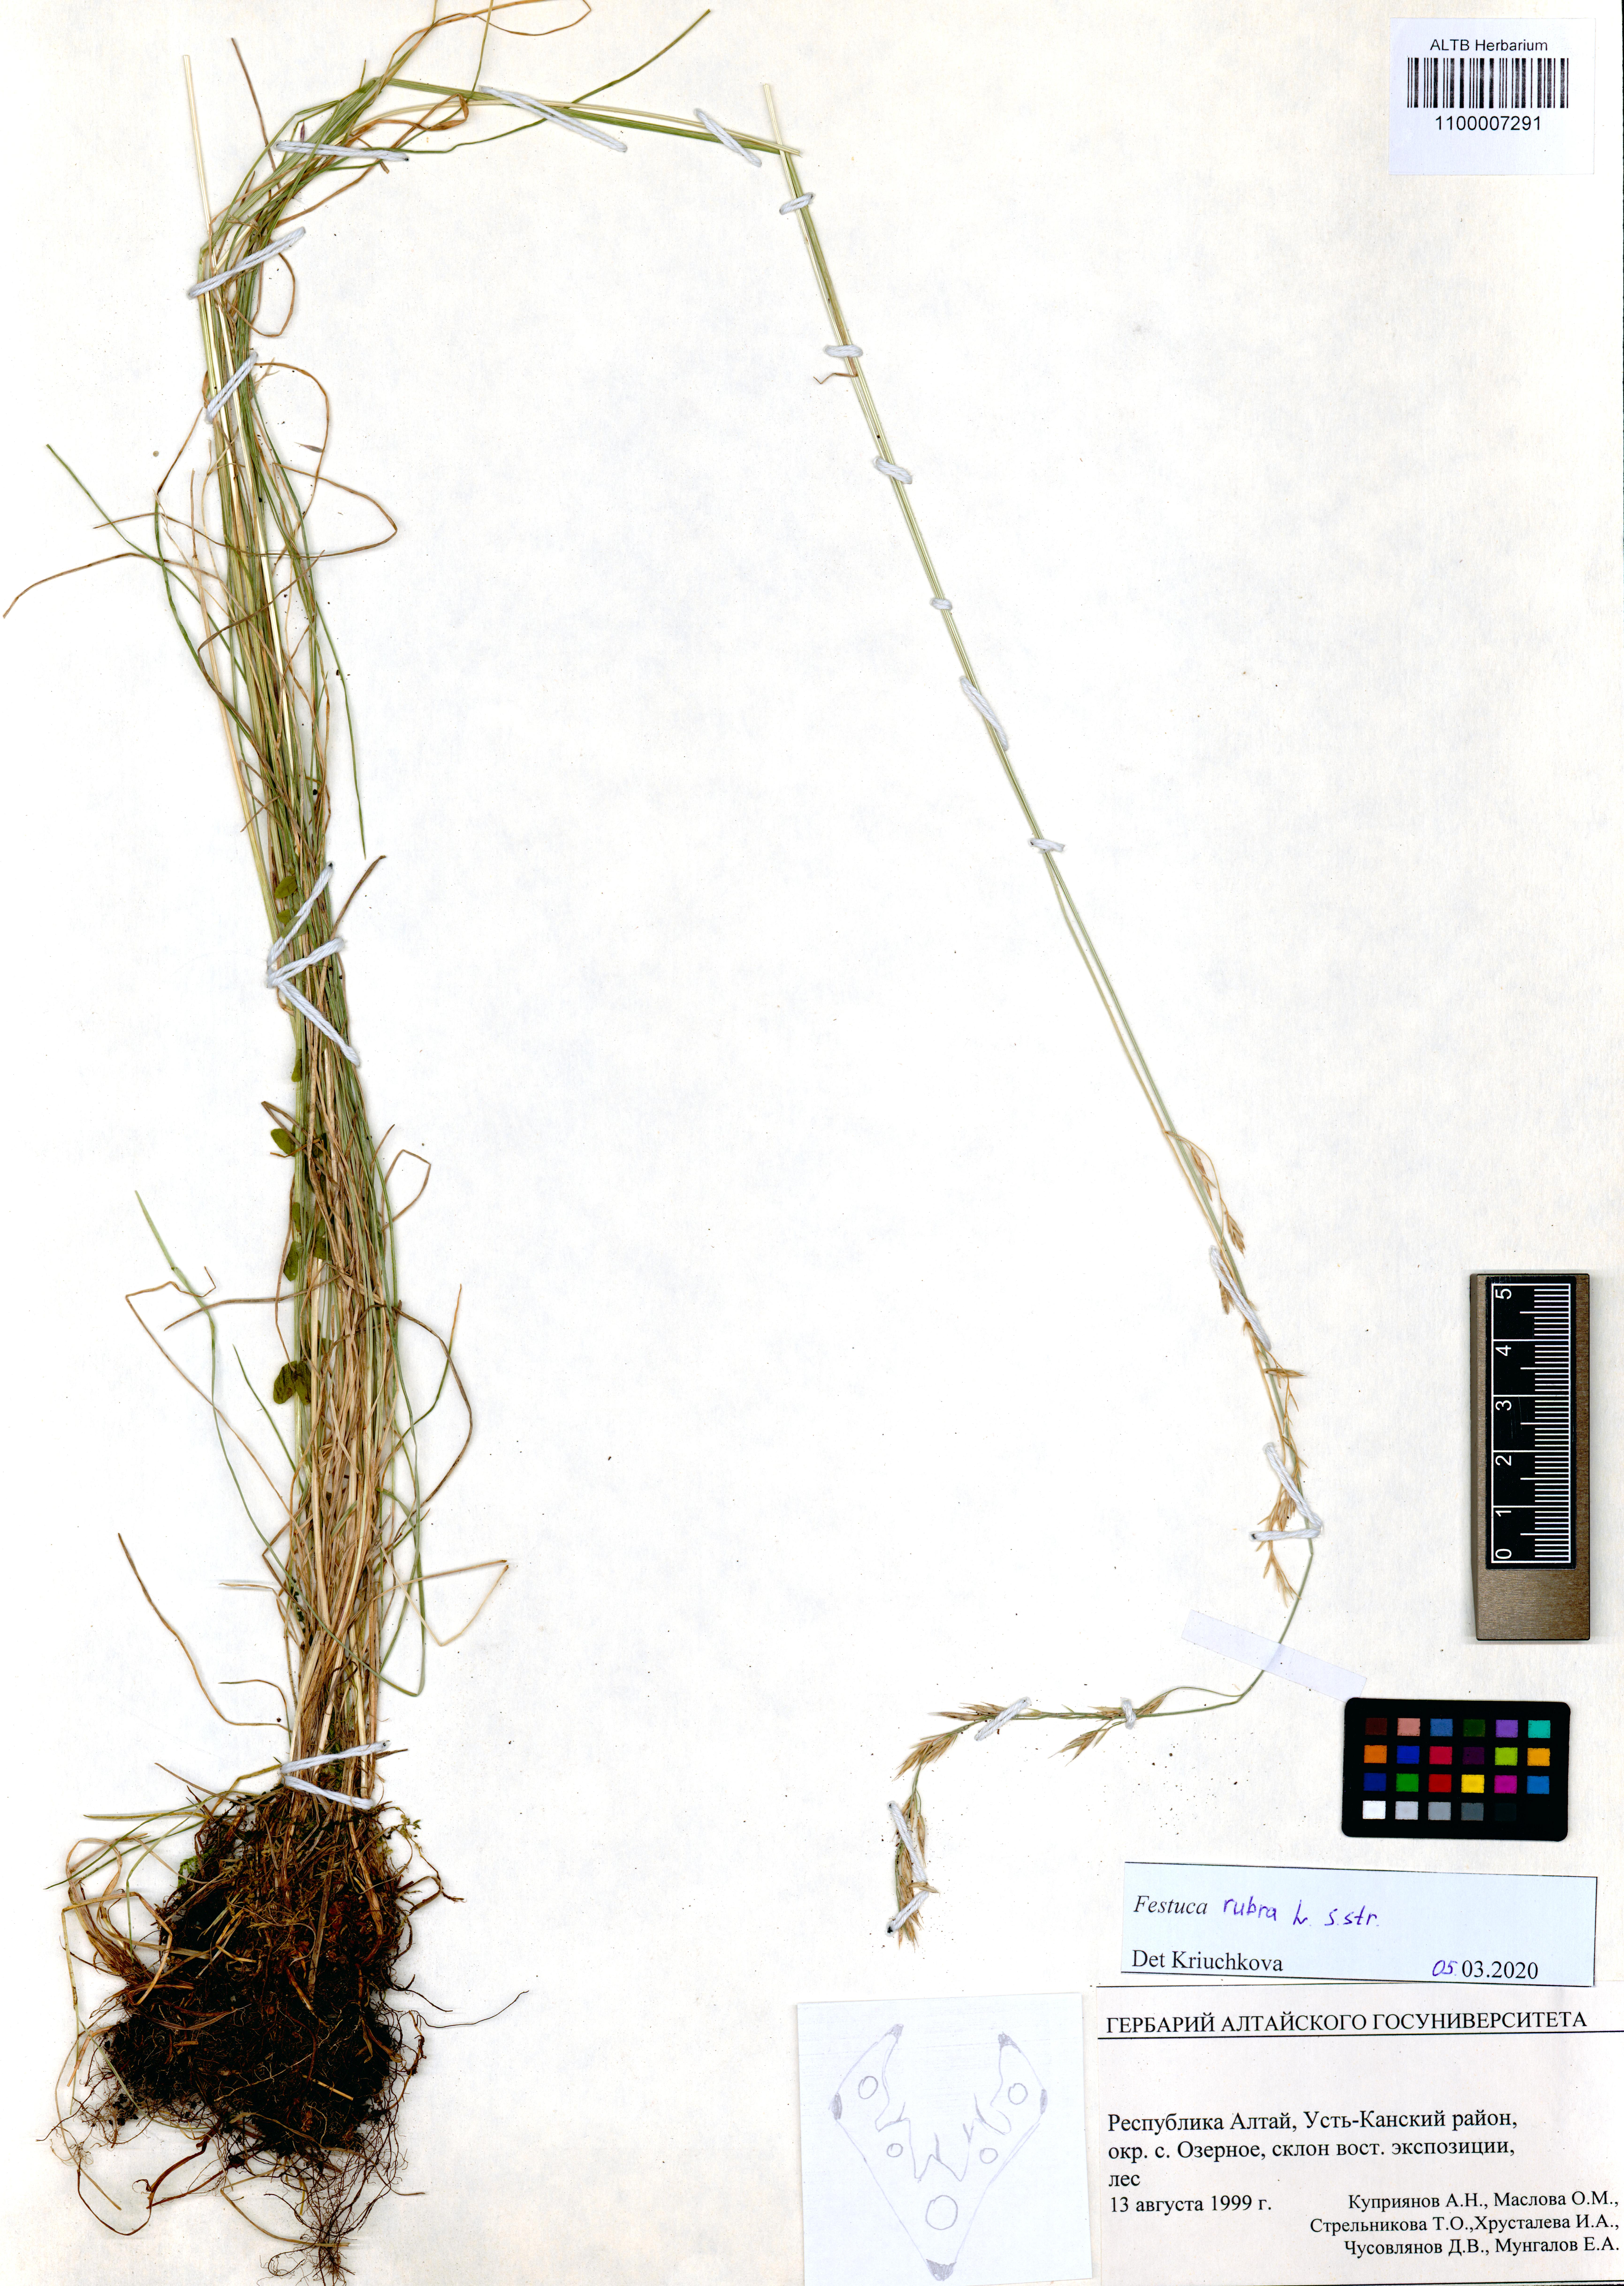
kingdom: Plantae
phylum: Tracheophyta
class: Liliopsida
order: Poales
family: Poaceae
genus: Festuca
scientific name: Festuca rubra
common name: Red fescue
